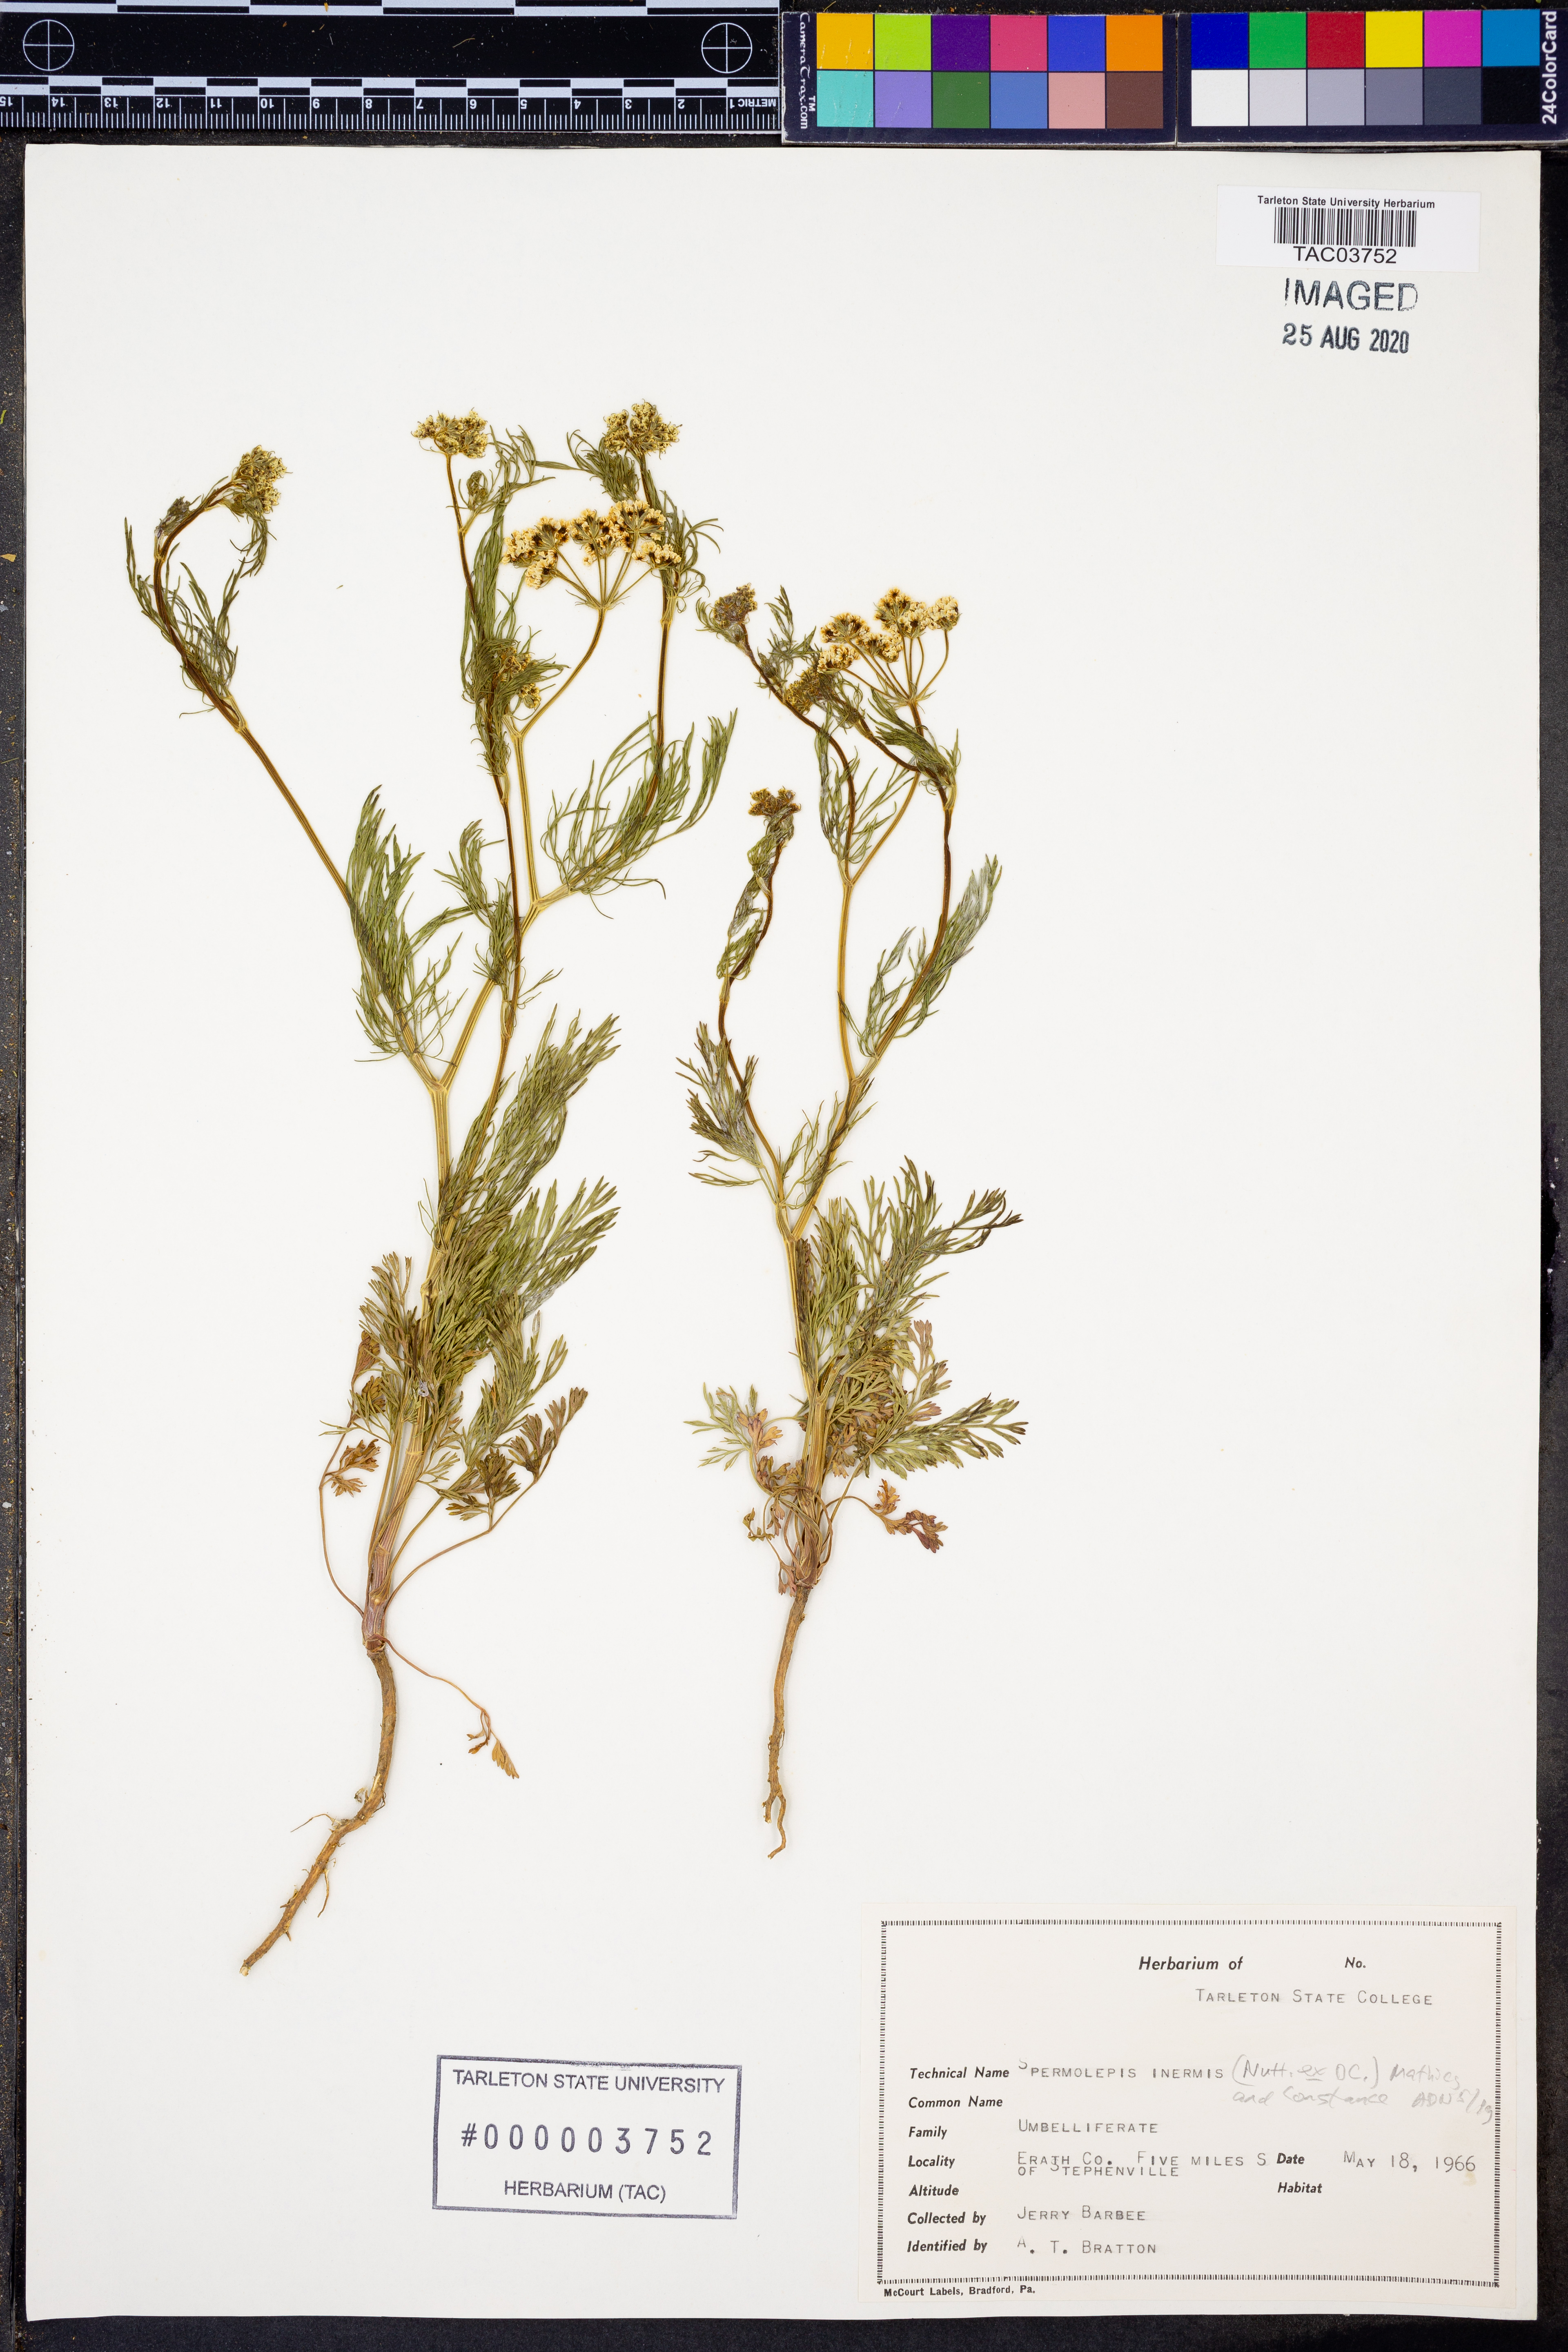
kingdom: Plantae
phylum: Tracheophyta
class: Magnoliopsida
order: Apiales
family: Apiaceae
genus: Spermolepis
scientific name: Spermolepis inermis
